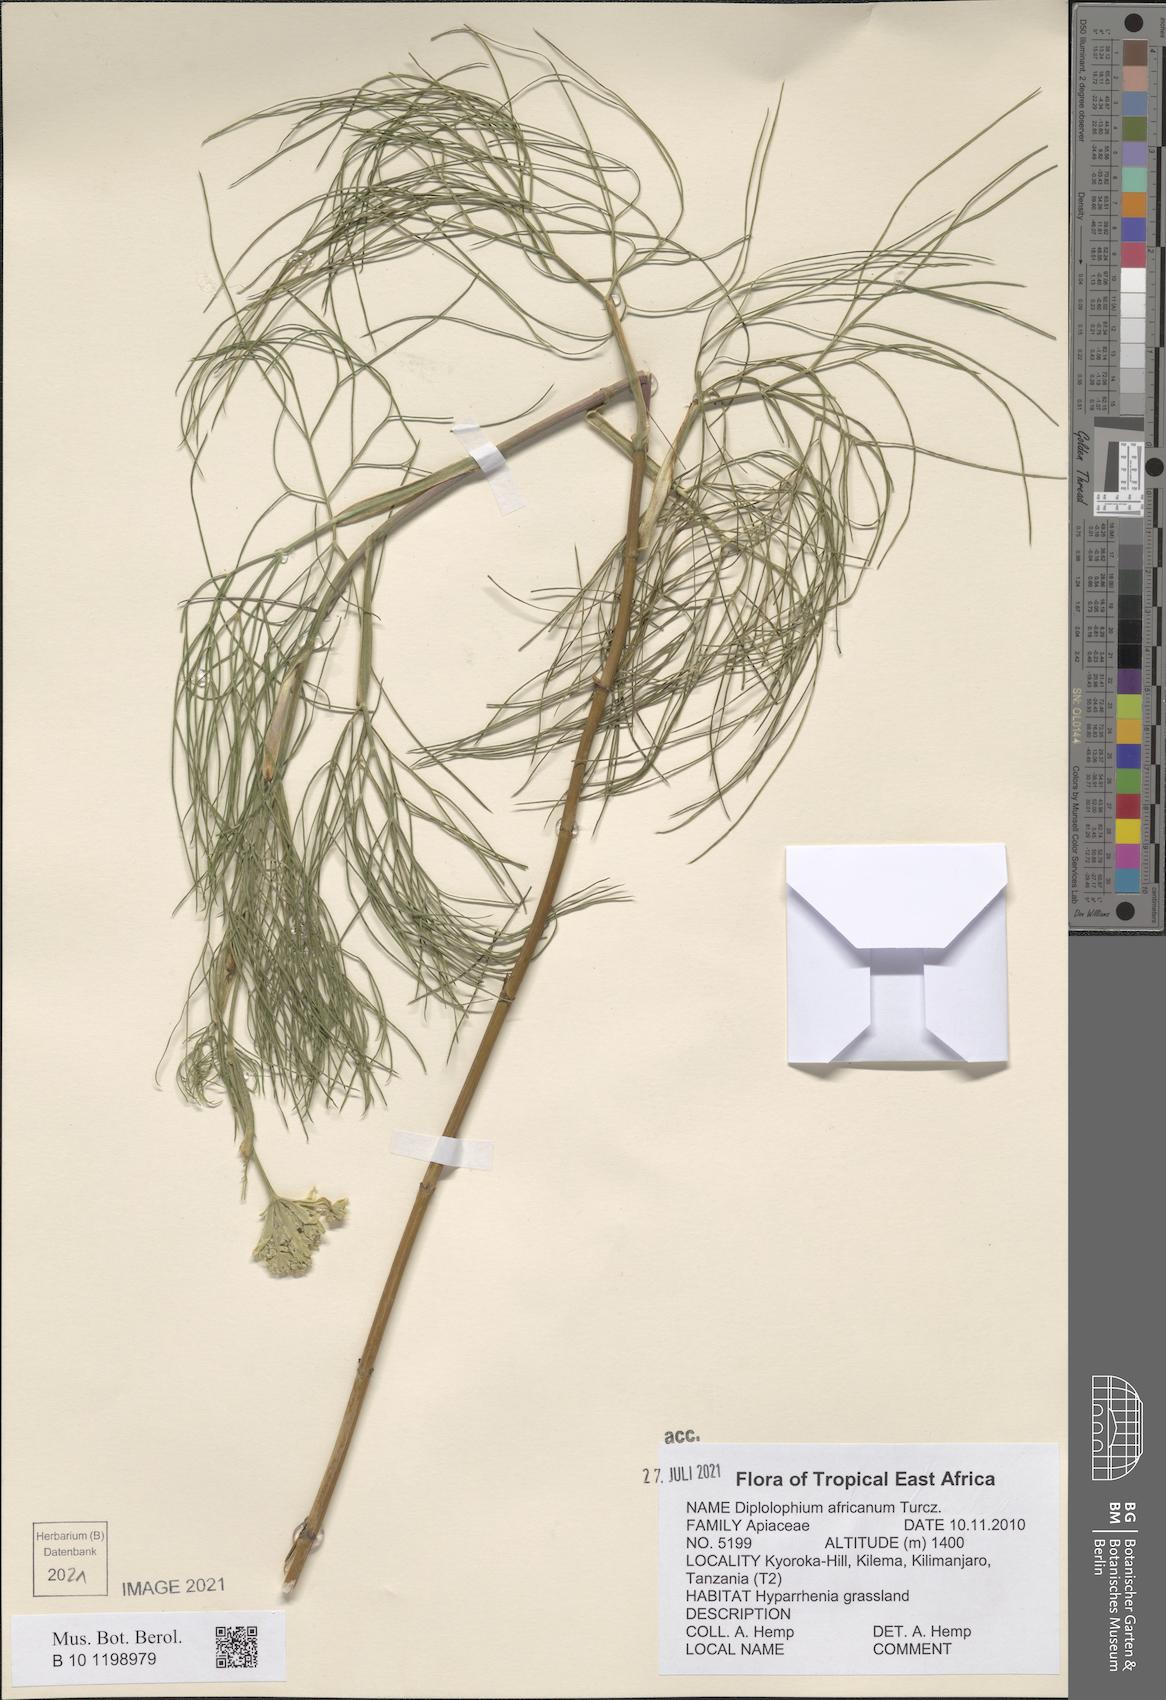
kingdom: Plantae
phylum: Tracheophyta
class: Magnoliopsida
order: Apiales
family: Apiaceae
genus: Diplolophium
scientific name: Diplolophium africanum
